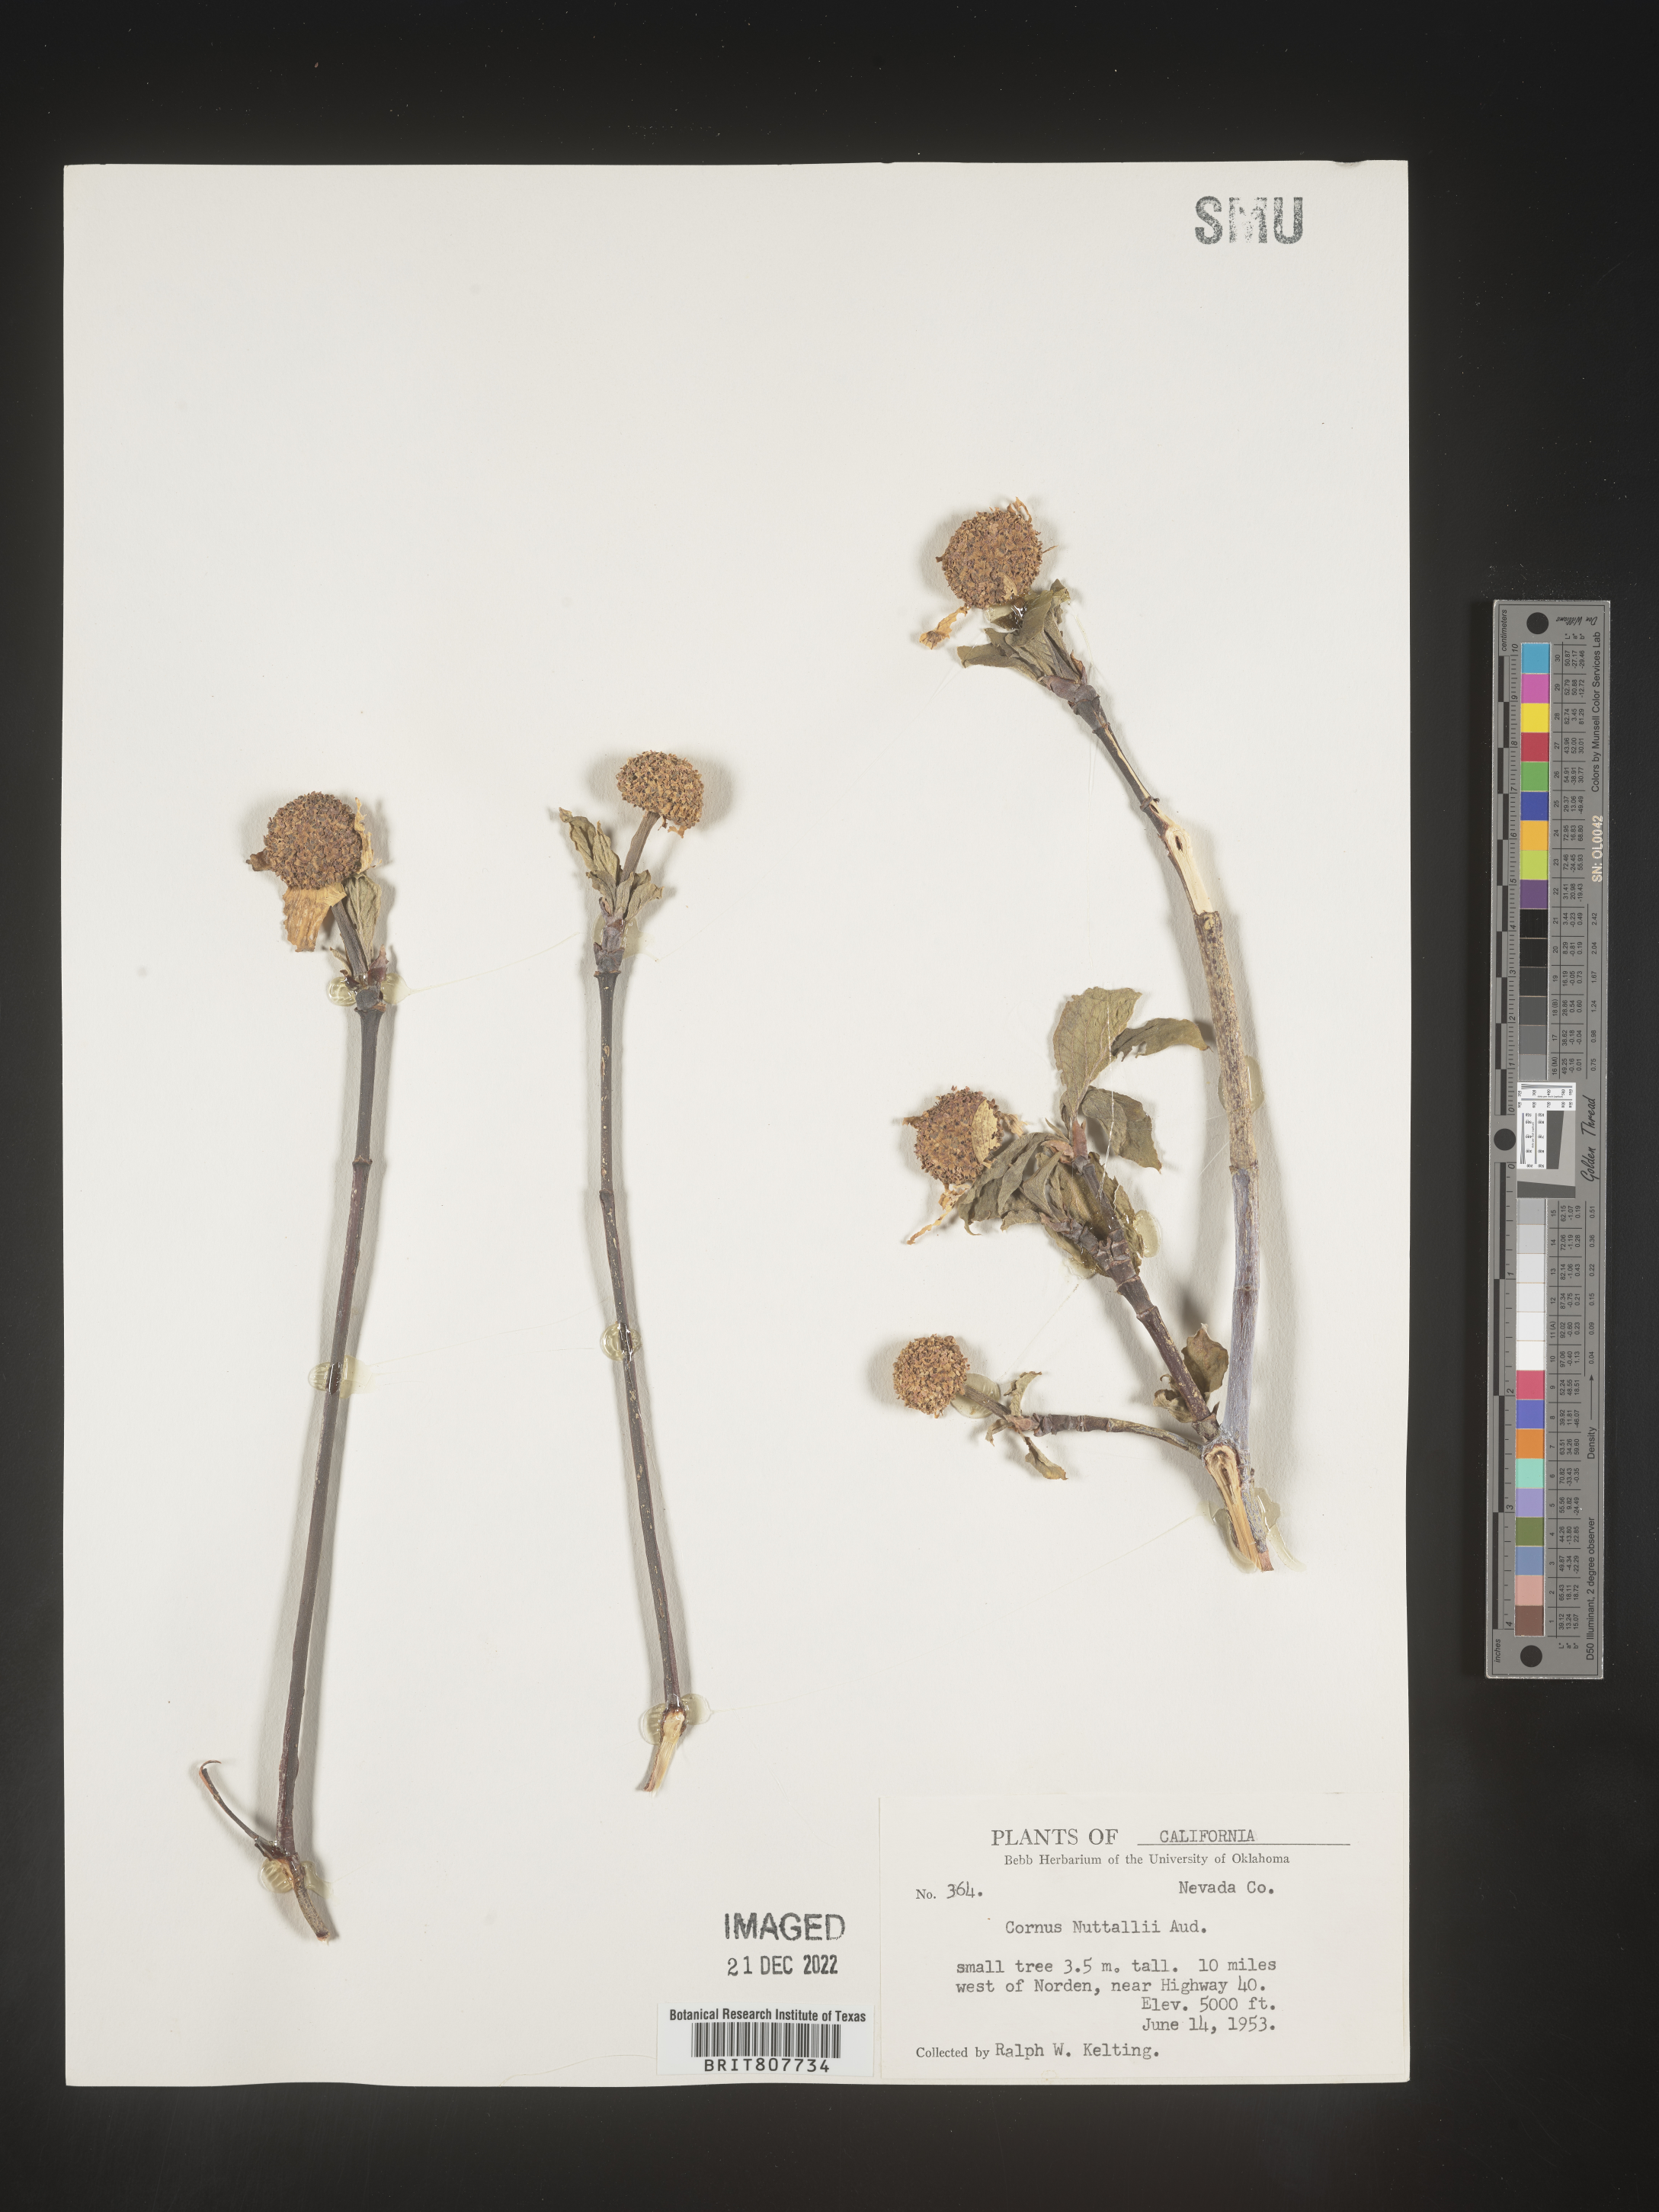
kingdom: Plantae
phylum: Tracheophyta
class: Magnoliopsida
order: Cornales
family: Cornaceae
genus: Cornus
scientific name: Cornus nuttallii
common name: Pacific dogwood
